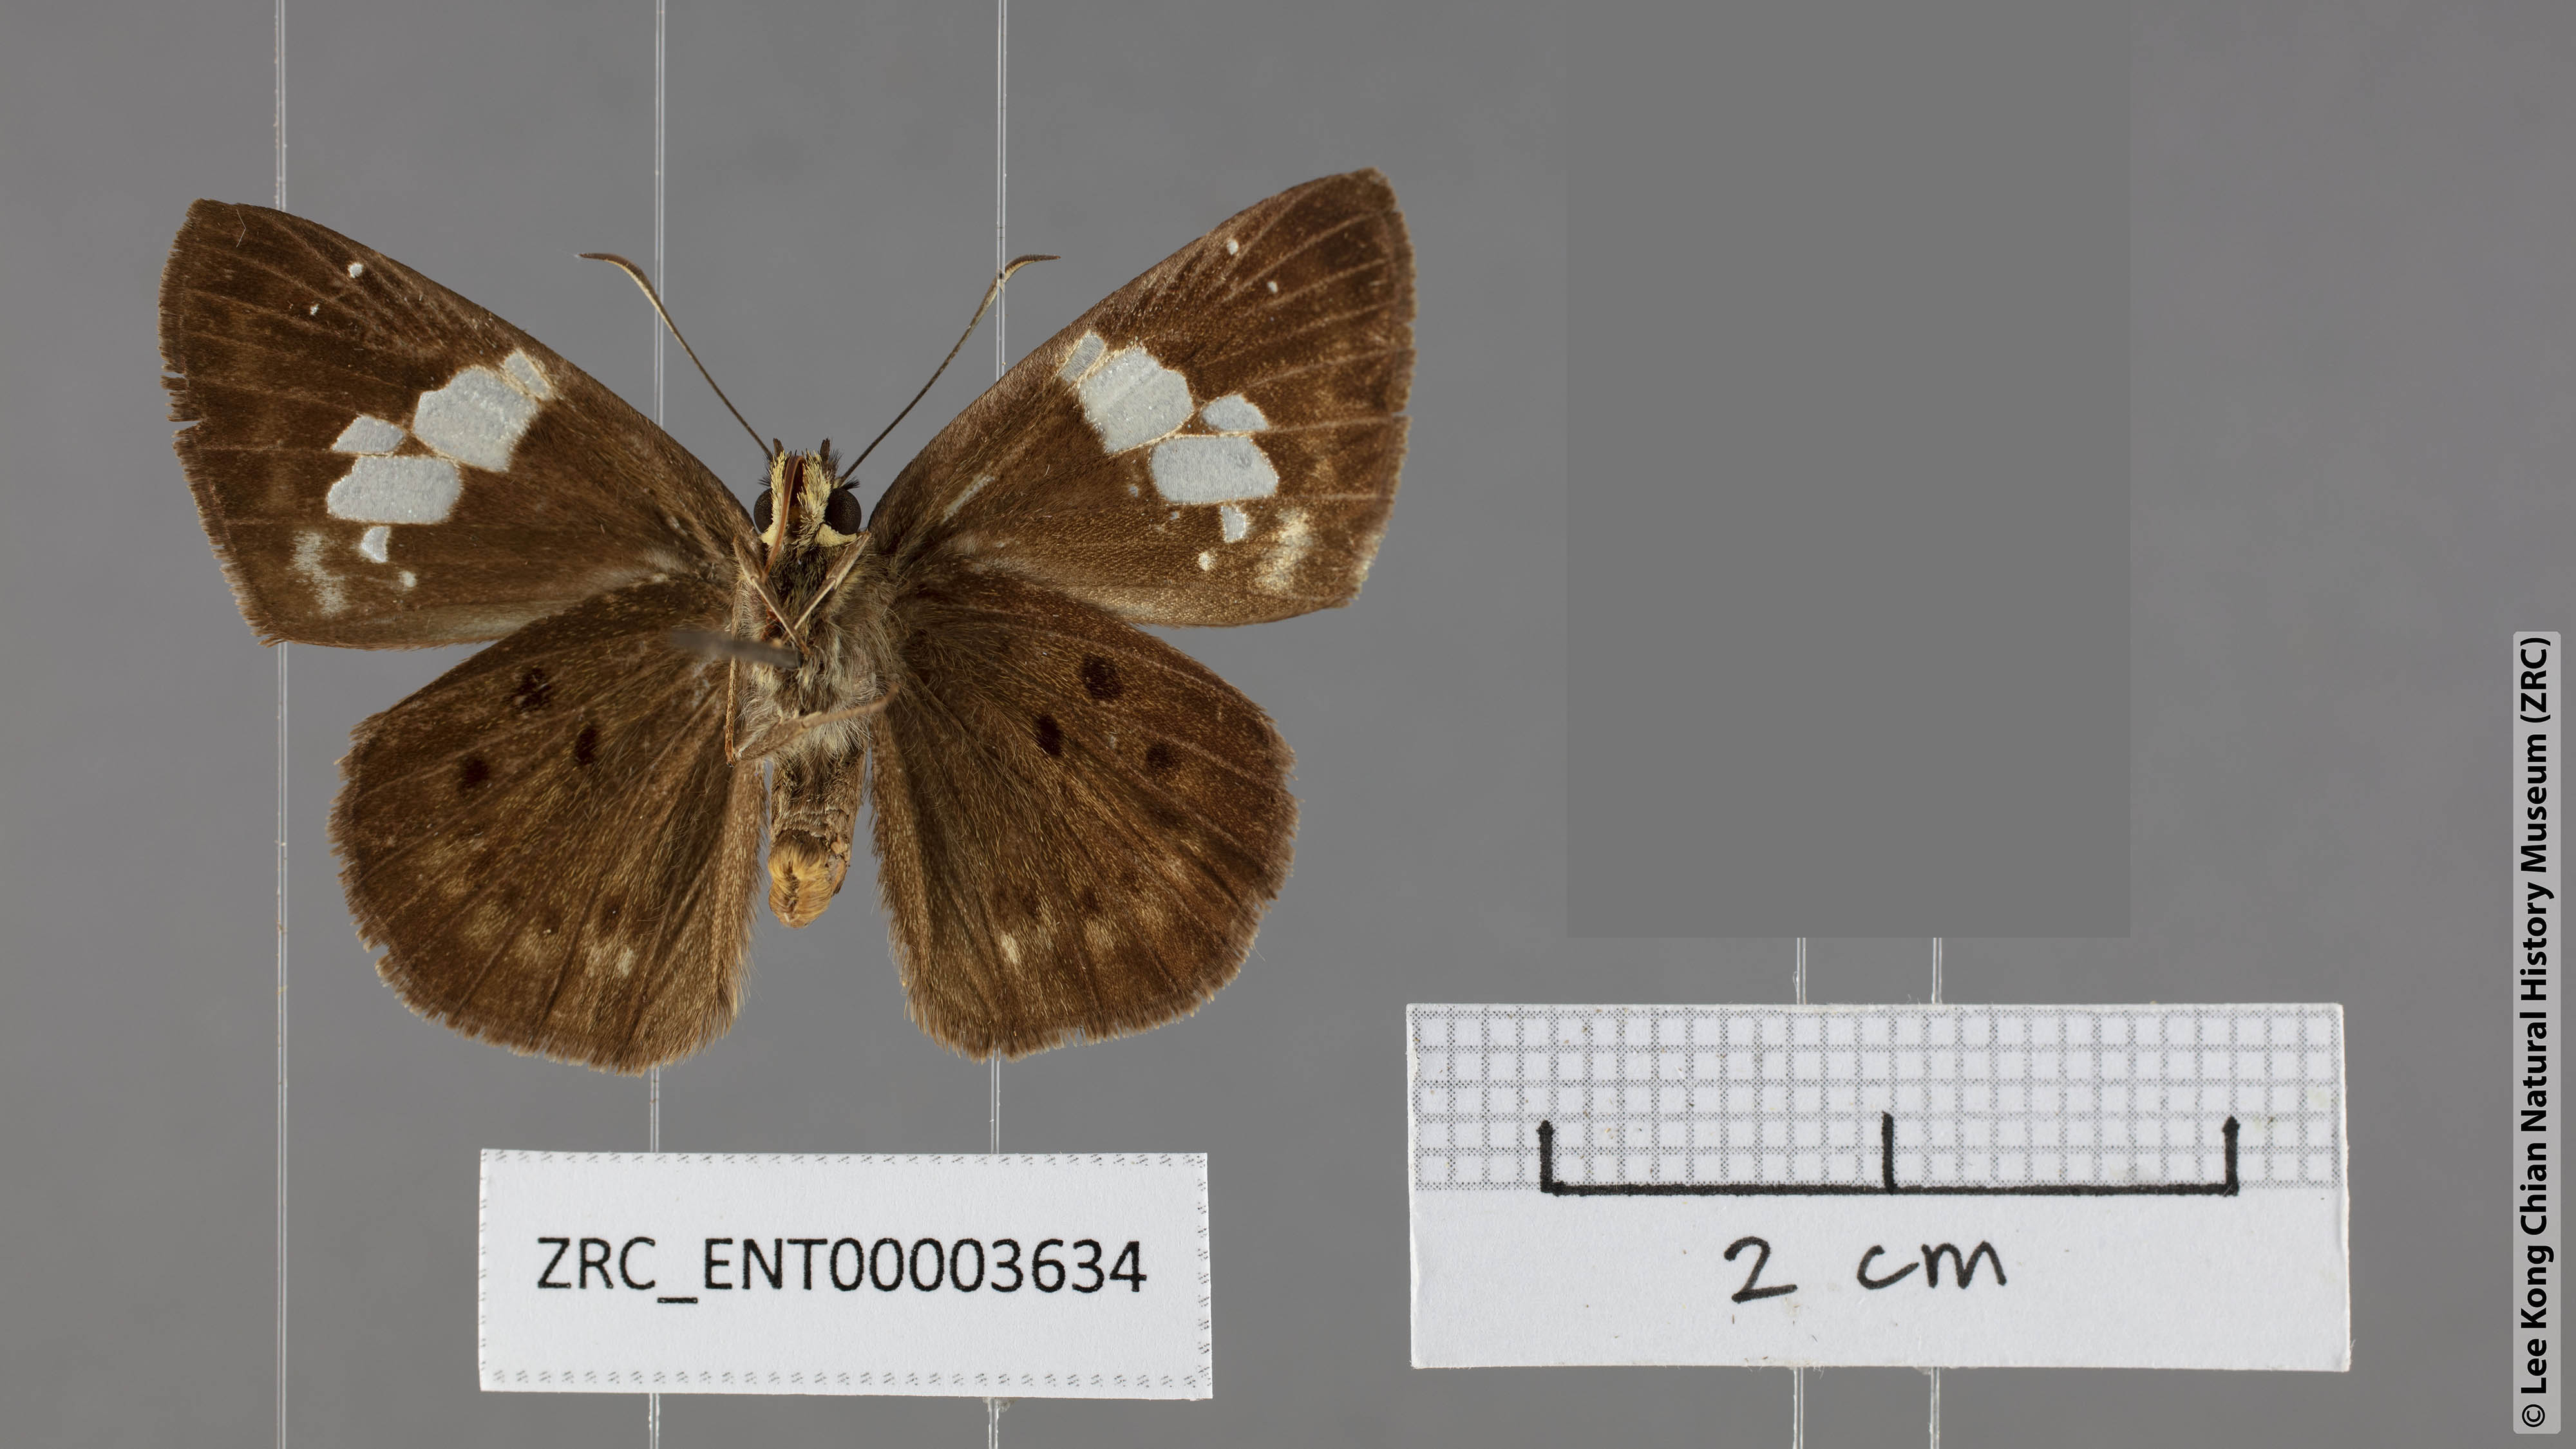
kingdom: Animalia
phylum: Arthropoda
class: Insecta
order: Lepidoptera
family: Hesperiidae
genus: Coladenia
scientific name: Coladenia agnioides
